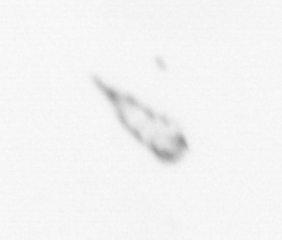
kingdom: Animalia
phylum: Arthropoda
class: Maxillopoda
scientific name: Maxillopoda
